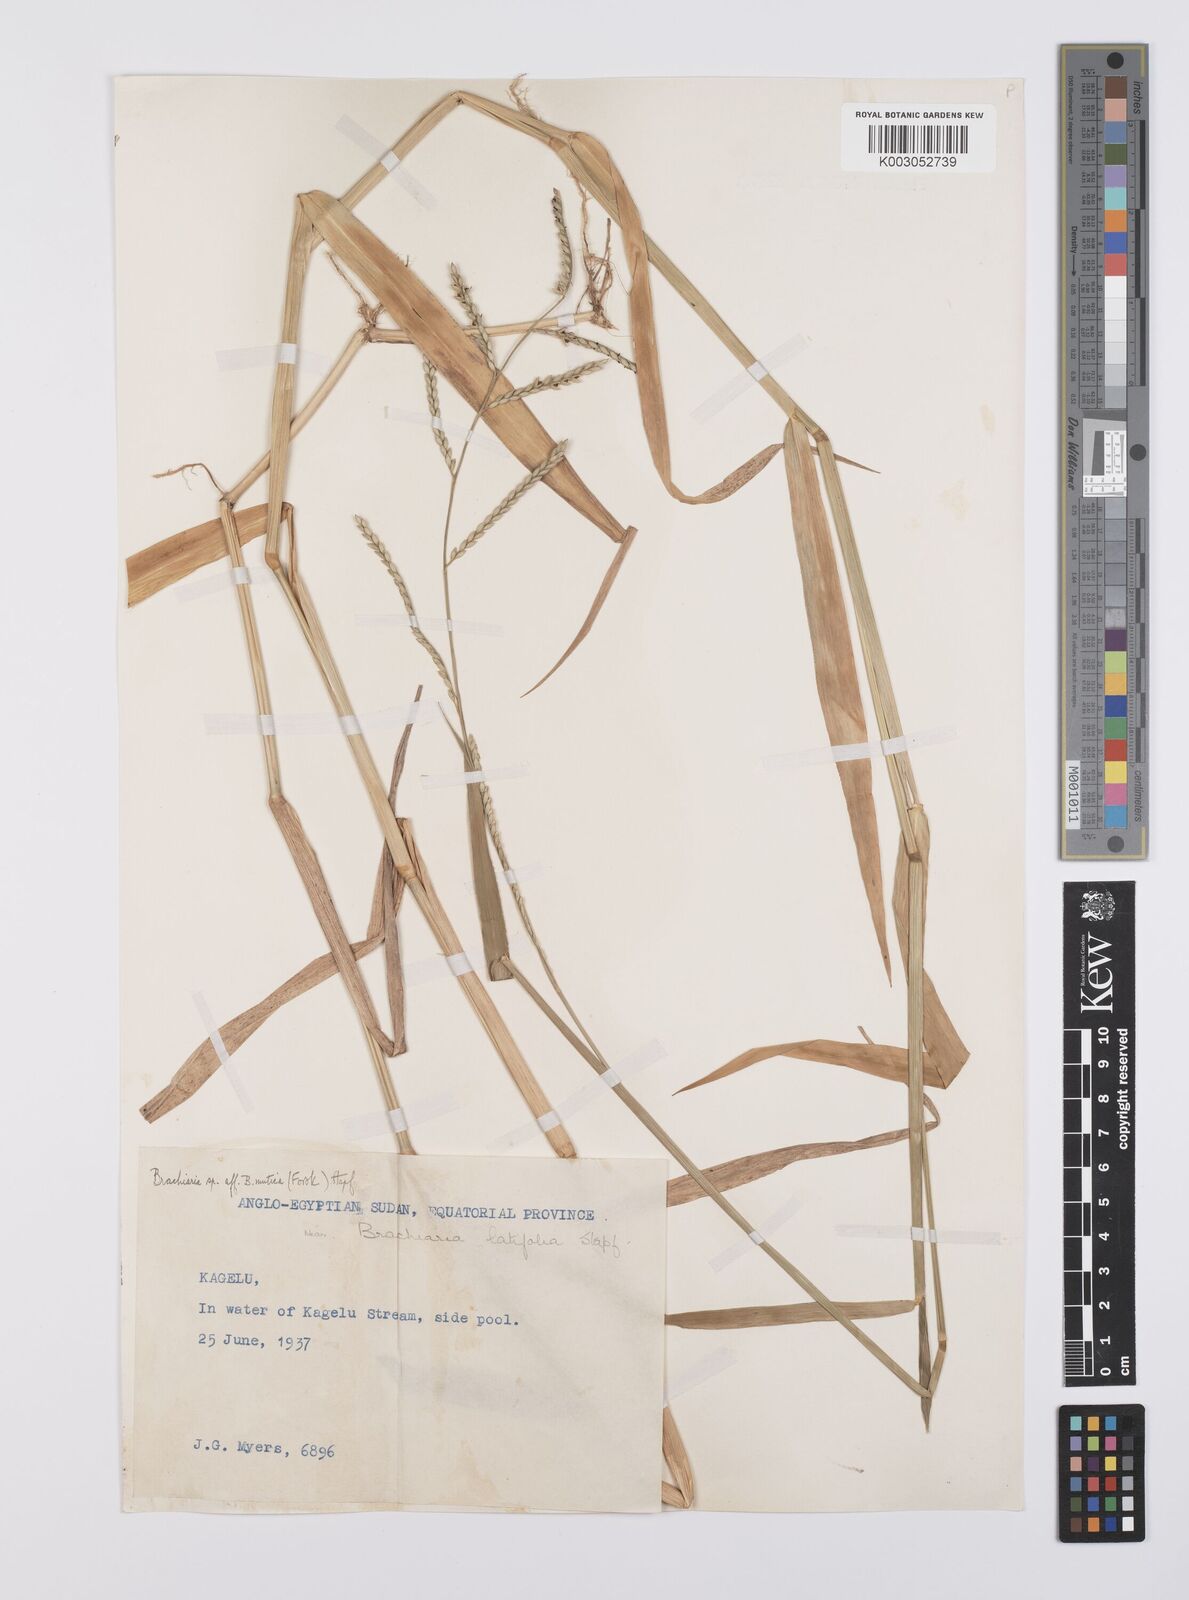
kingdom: Plantae
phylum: Tracheophyta
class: Liliopsida
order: Poales
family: Poaceae
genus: Urochloa
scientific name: Urochloa arrecta
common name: African signalgrass
